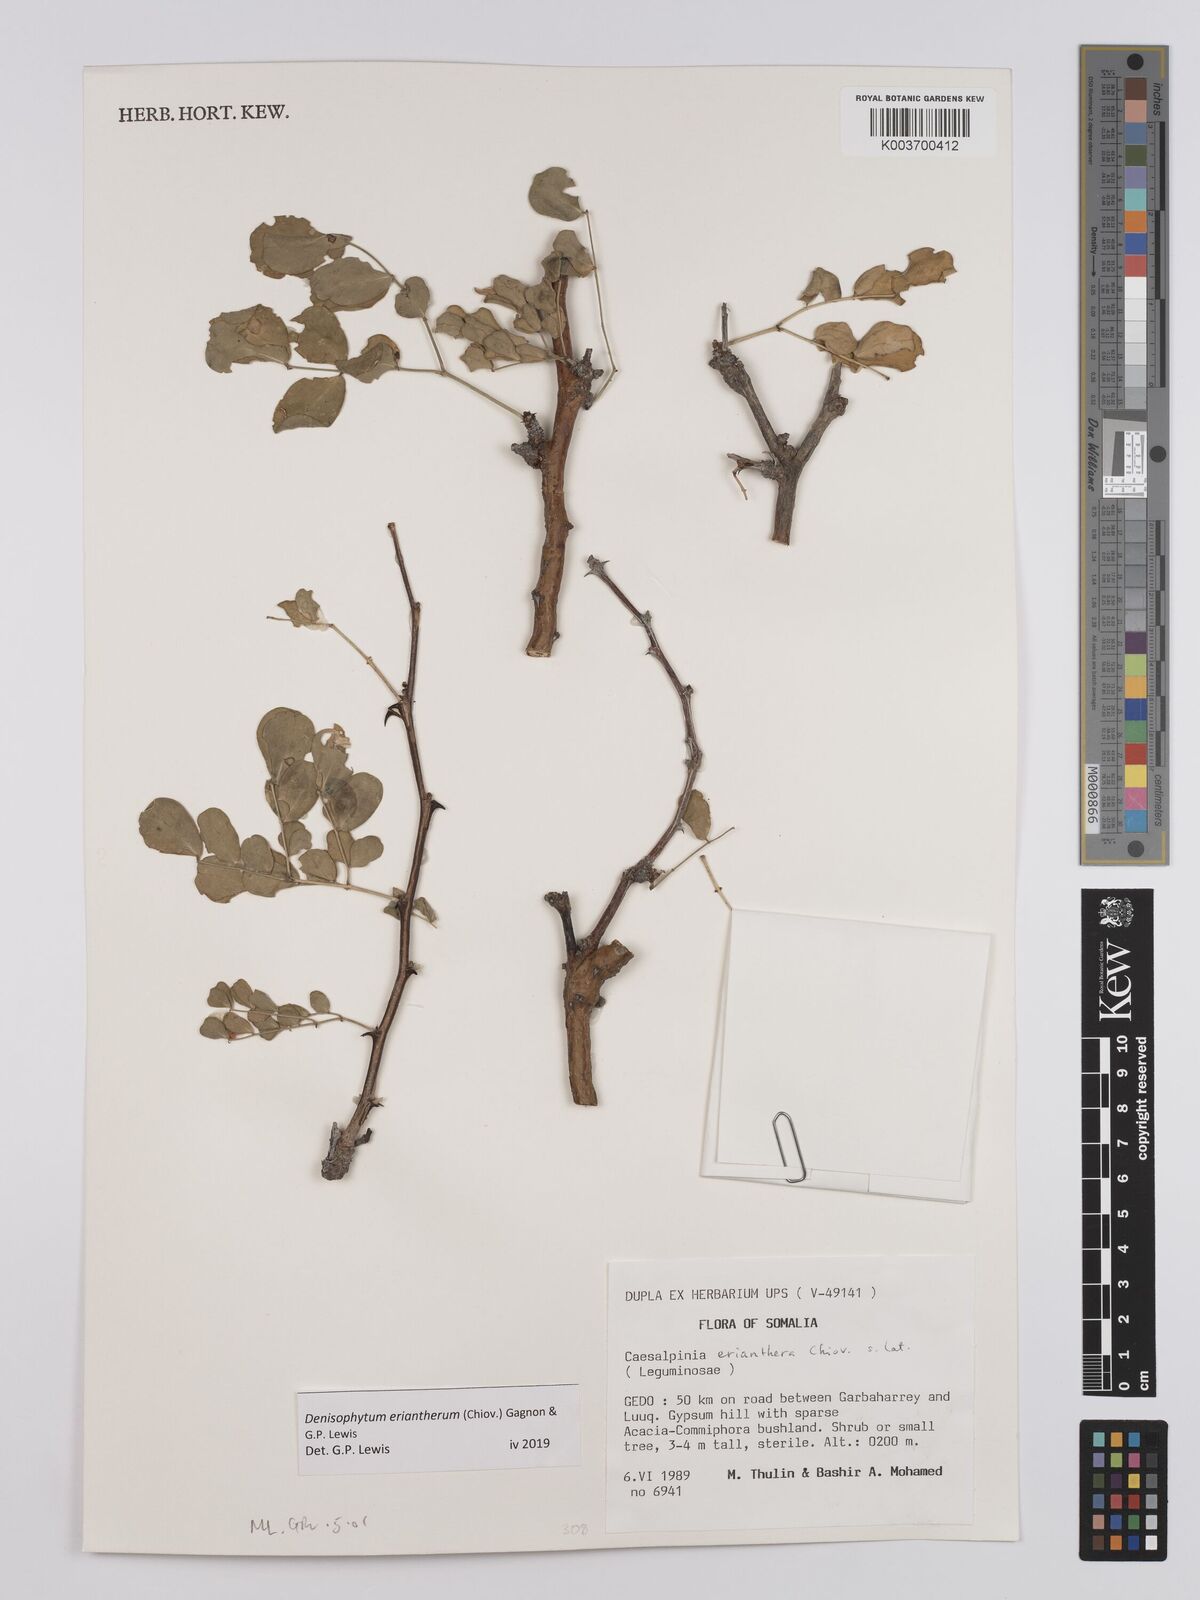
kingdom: Plantae
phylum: Tracheophyta
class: Magnoliopsida
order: Fabales
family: Fabaceae
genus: Denisophytum
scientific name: Denisophytum eriantherum
